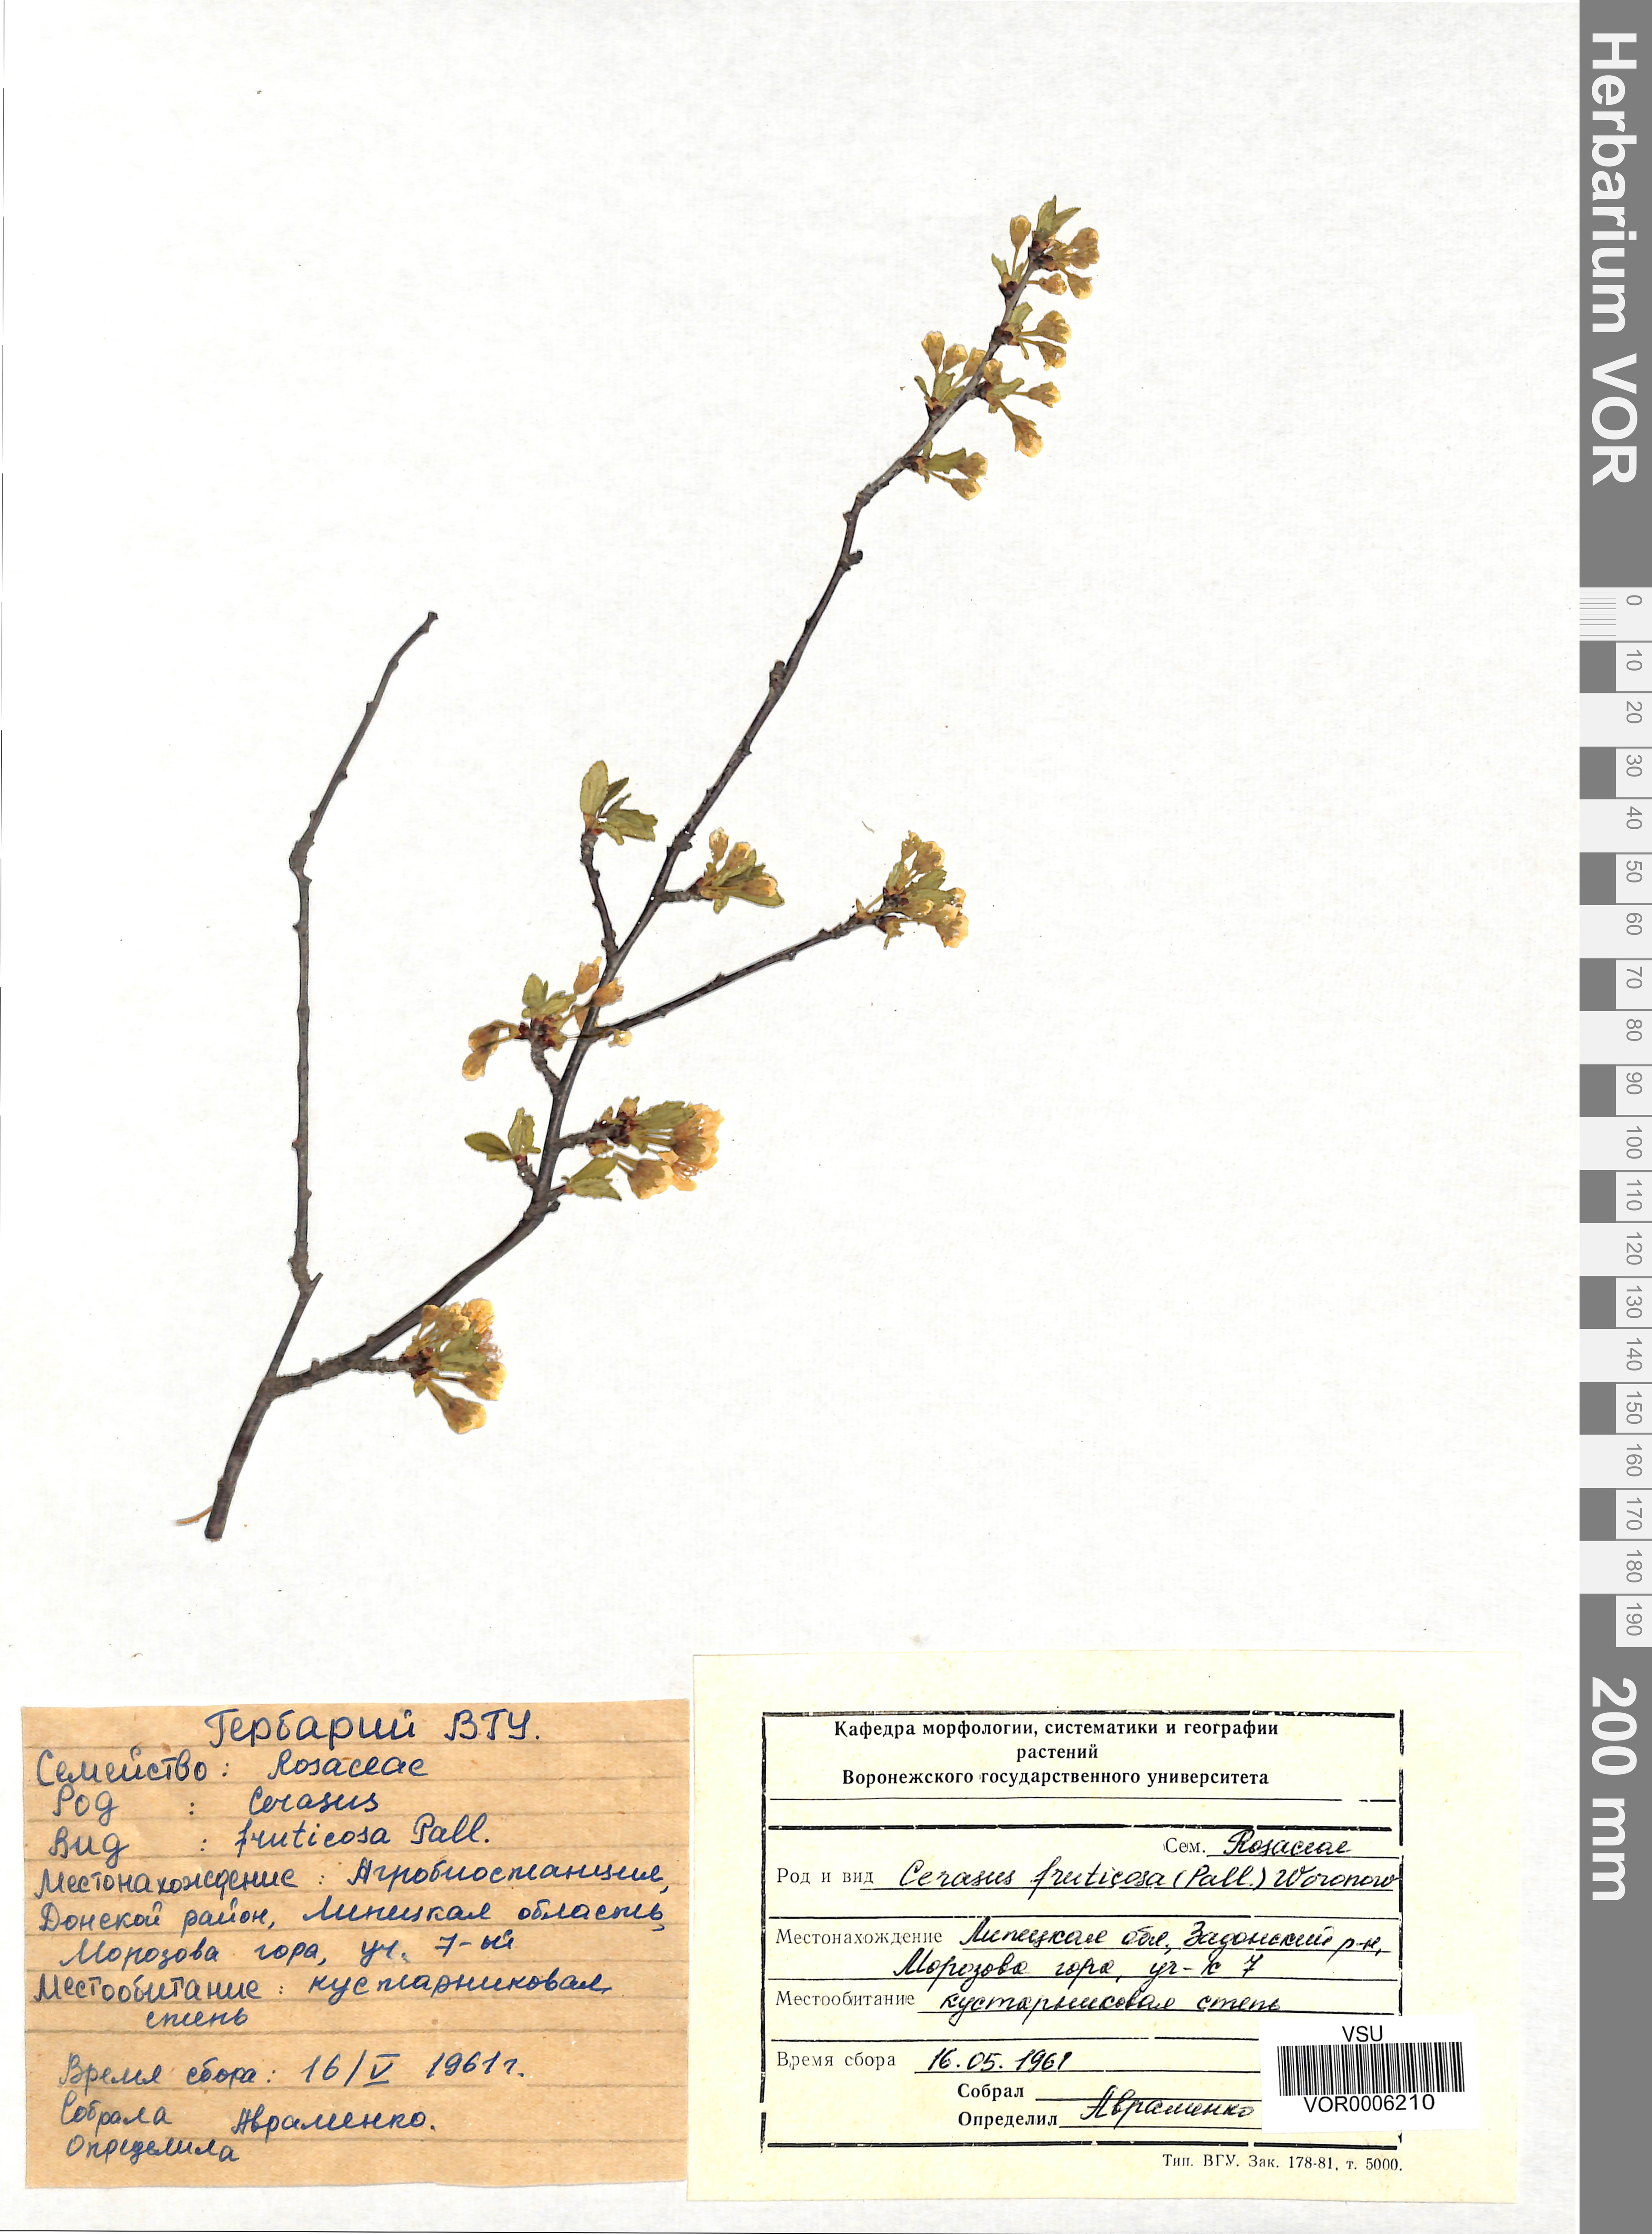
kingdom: Plantae
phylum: Tracheophyta
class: Magnoliopsida
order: Rosales
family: Rosaceae
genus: Prunus
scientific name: Prunus fruticosa
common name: European dwarf cherry
